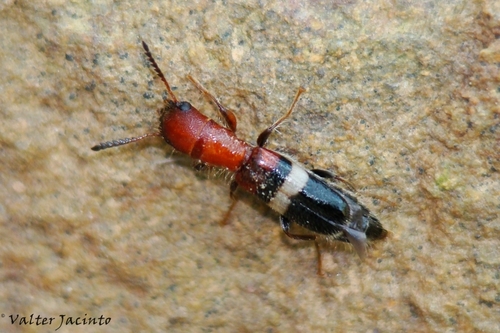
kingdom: Animalia
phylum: Arthropoda
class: Insecta
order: Coleoptera
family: Cleridae
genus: Denops
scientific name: Denops albofasciatus
